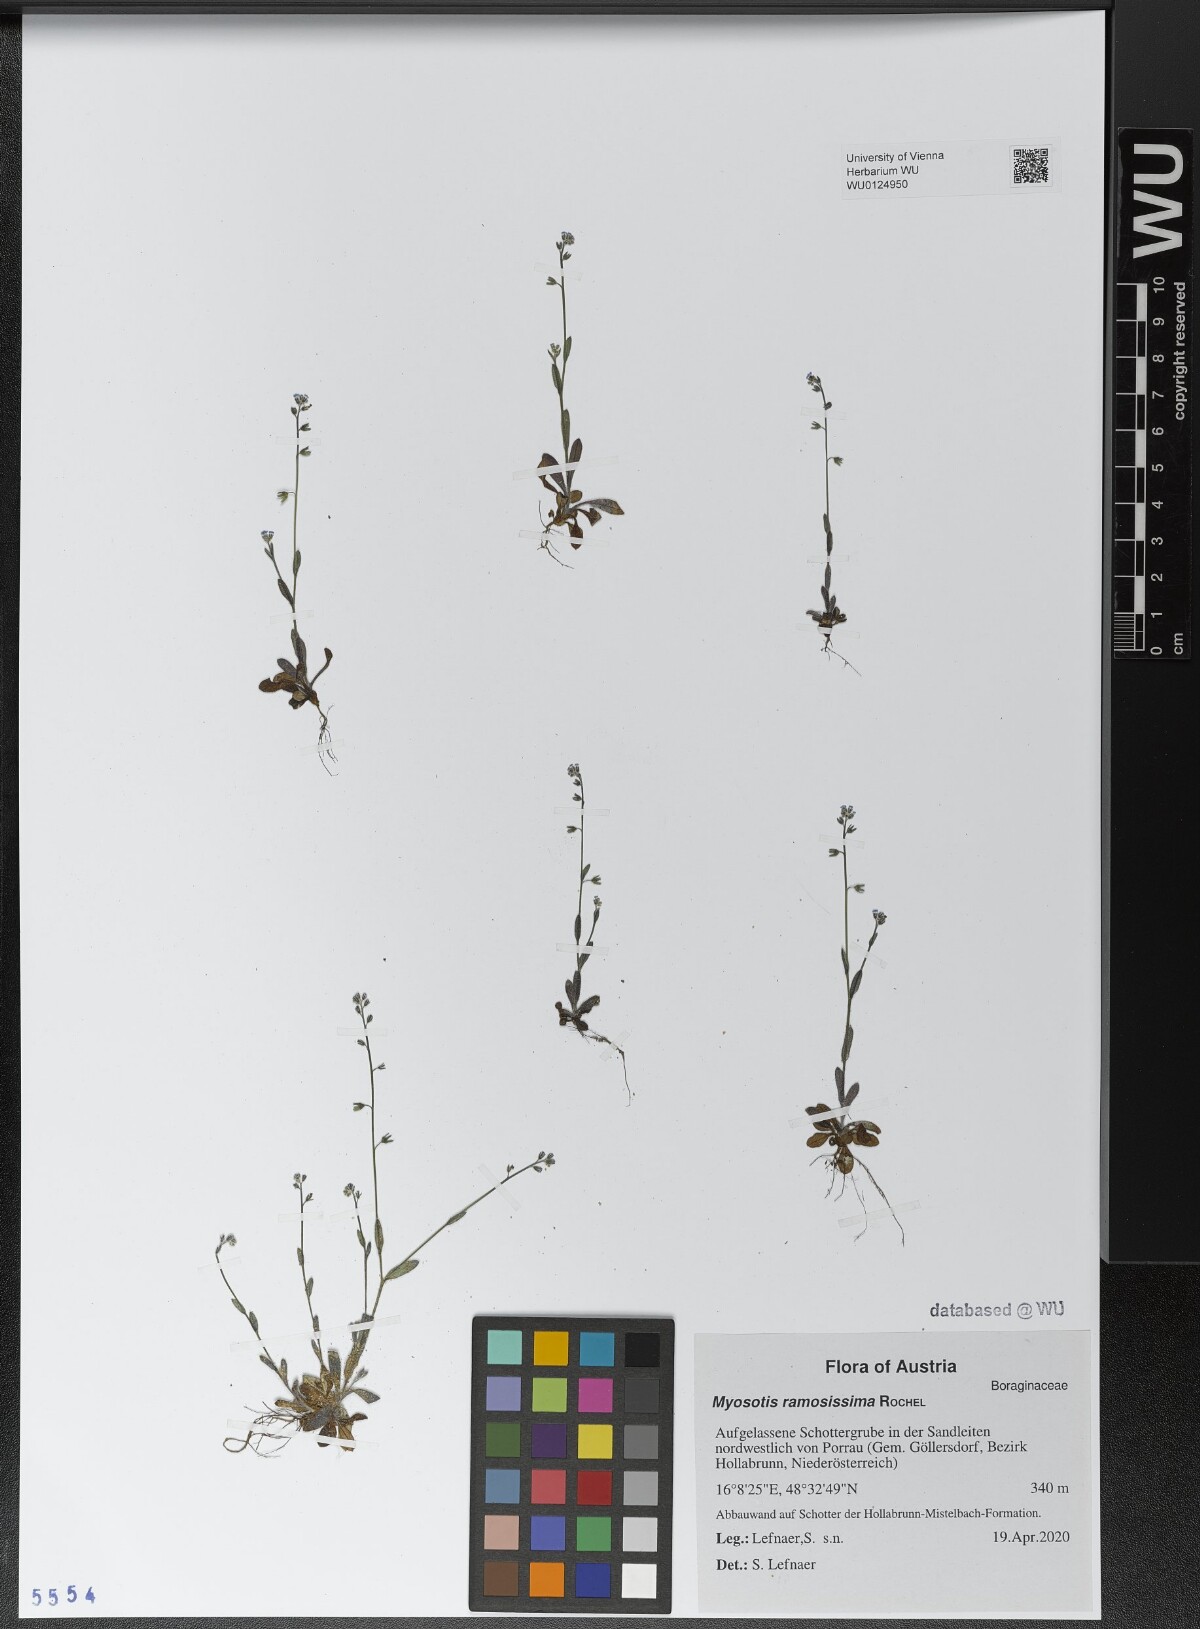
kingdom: Plantae
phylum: Tracheophyta
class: Magnoliopsida
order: Boraginales
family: Boraginaceae
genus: Myosotis
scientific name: Myosotis ramosissima
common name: Early forget-me-not
